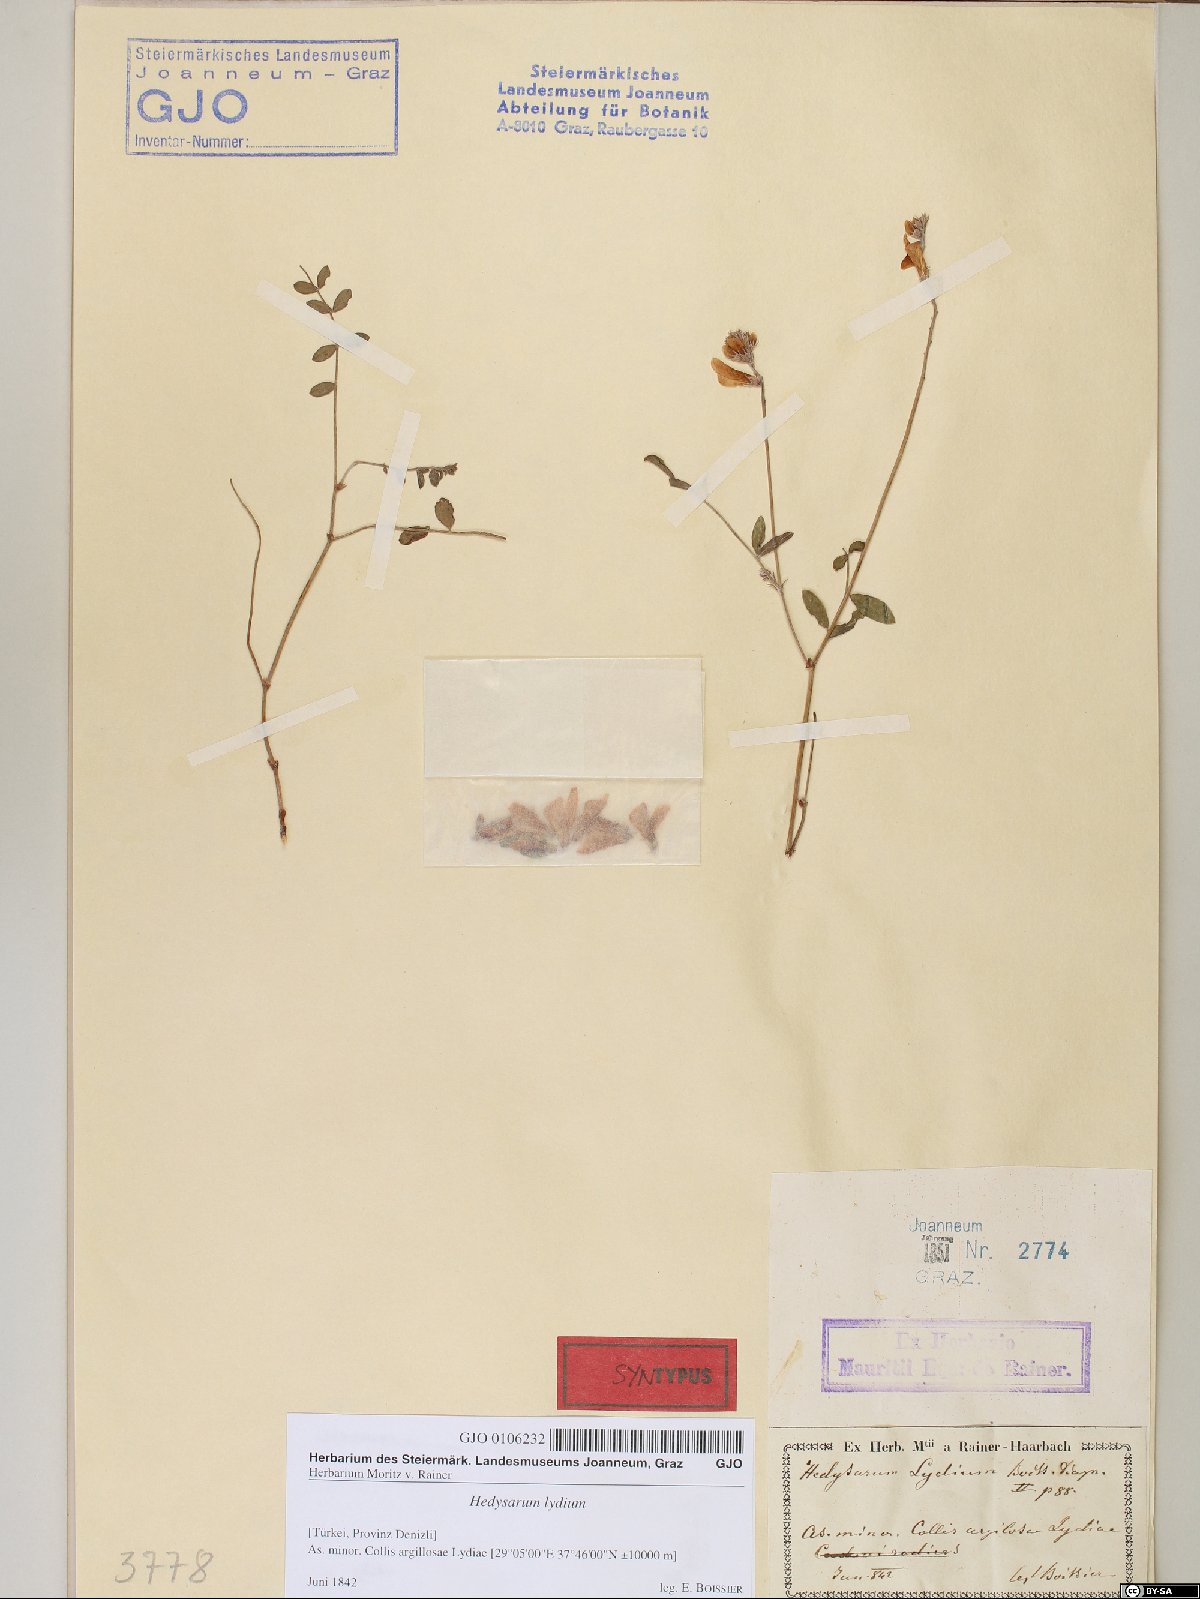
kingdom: Plantae
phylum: Tracheophyta
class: Magnoliopsida
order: Fabales
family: Fabaceae
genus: Hedysarum
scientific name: Hedysarum varium
